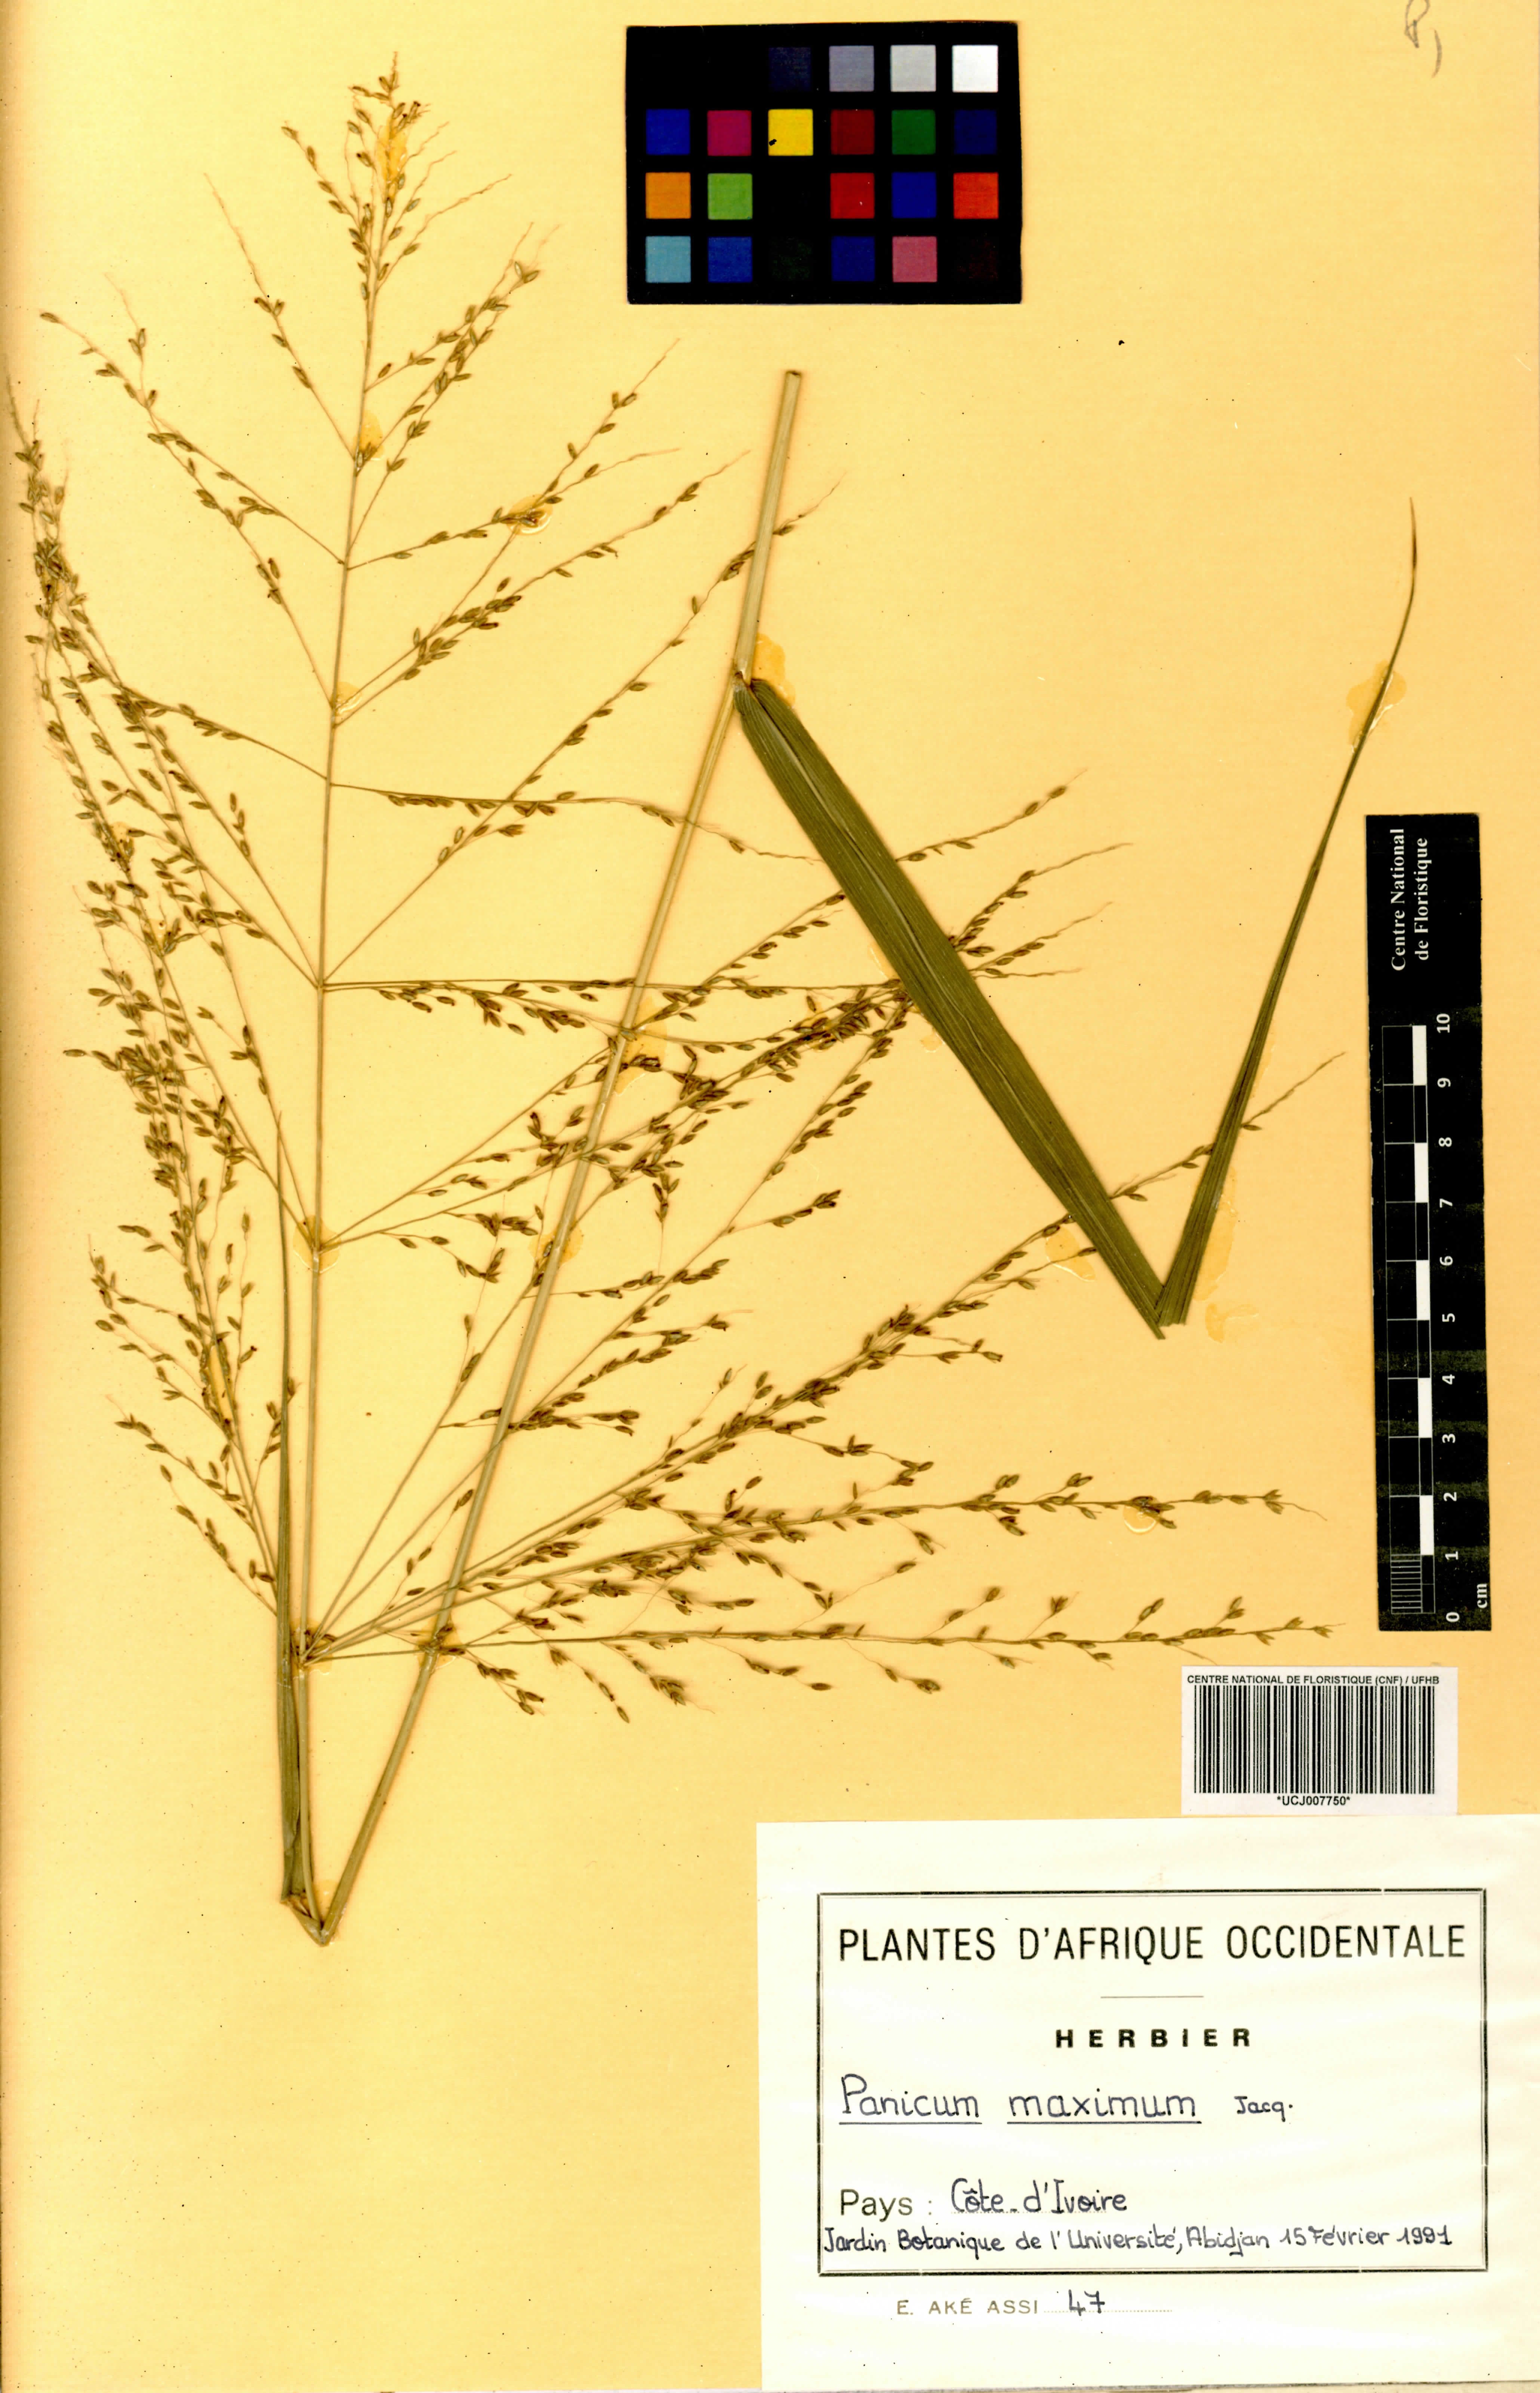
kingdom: Plantae
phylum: Tracheophyta
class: Liliopsida
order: Poales
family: Poaceae
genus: Megathyrsus
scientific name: Megathyrsus maximus
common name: Guineagrass
